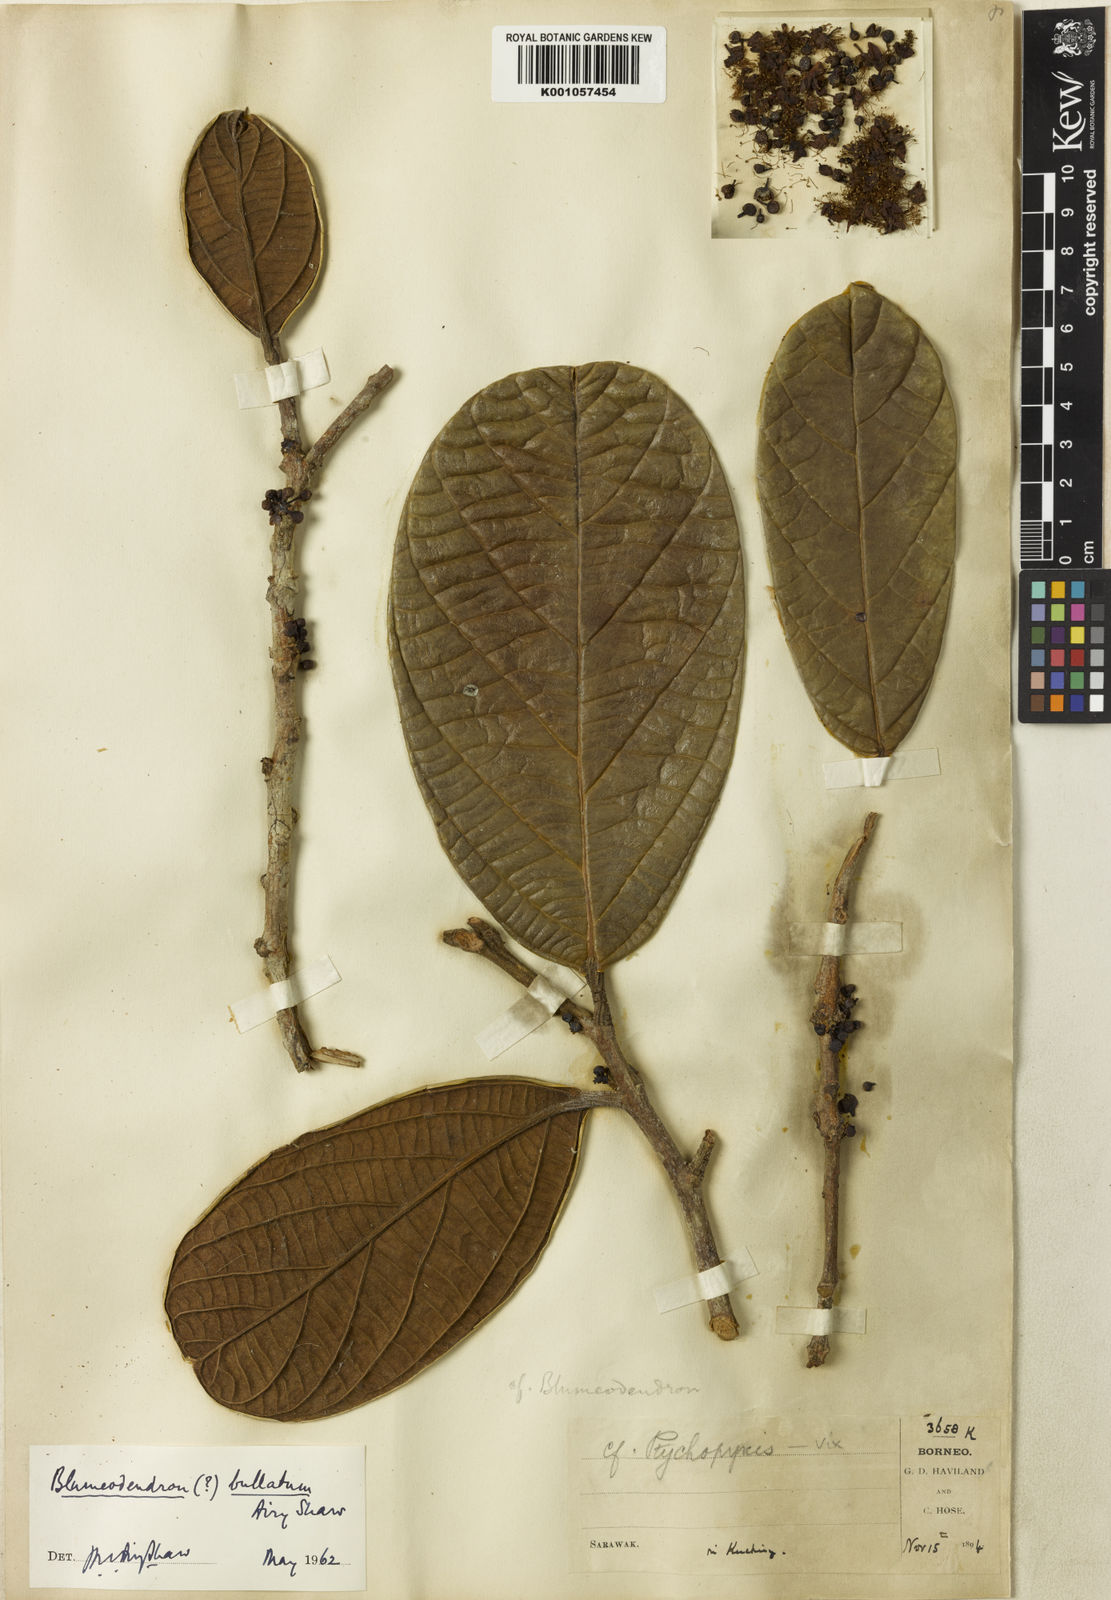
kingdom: Plantae
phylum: Tracheophyta
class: Magnoliopsida
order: Malpighiales
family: Euphorbiaceae
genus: Blumeodendron
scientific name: Blumeodendron bullatum
